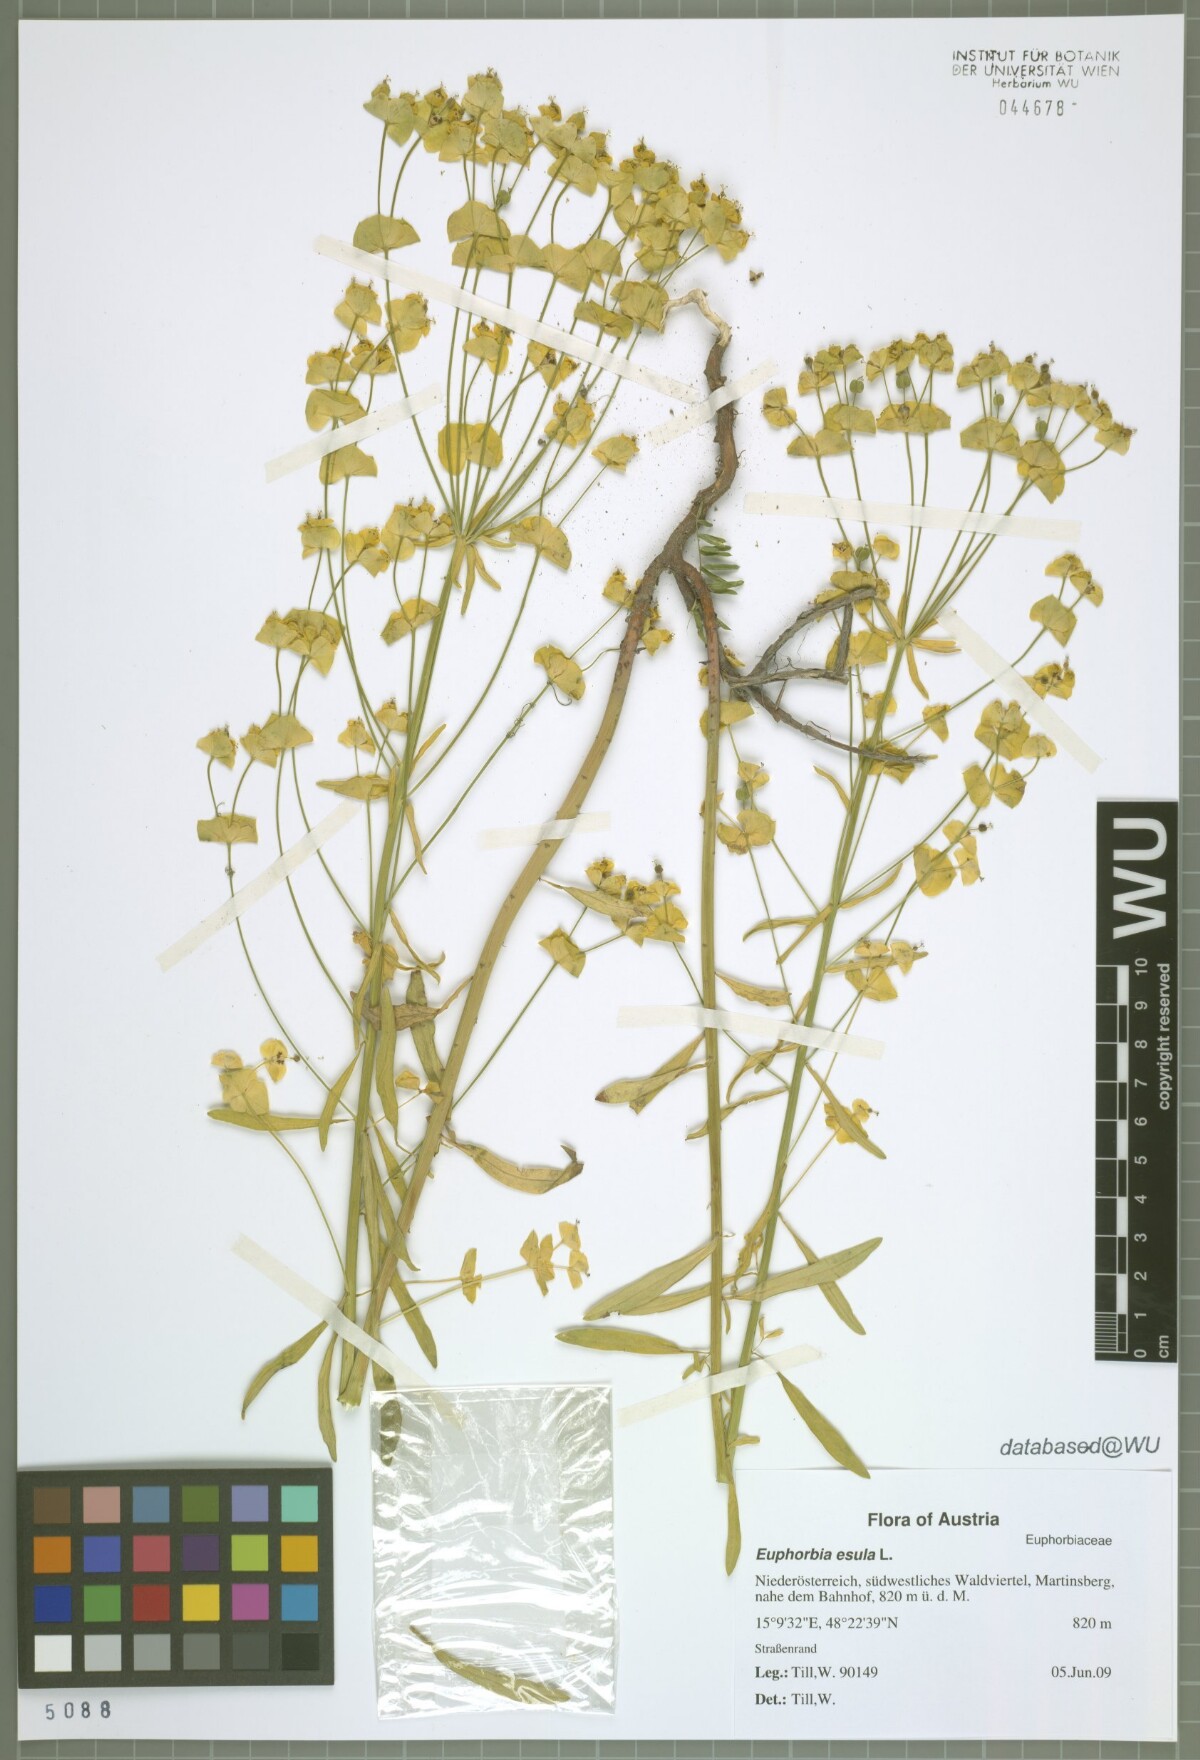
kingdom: Plantae
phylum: Tracheophyta
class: Magnoliopsida
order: Malpighiales
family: Euphorbiaceae
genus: Euphorbia
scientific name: Euphorbia esula
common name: Leafy spurge
